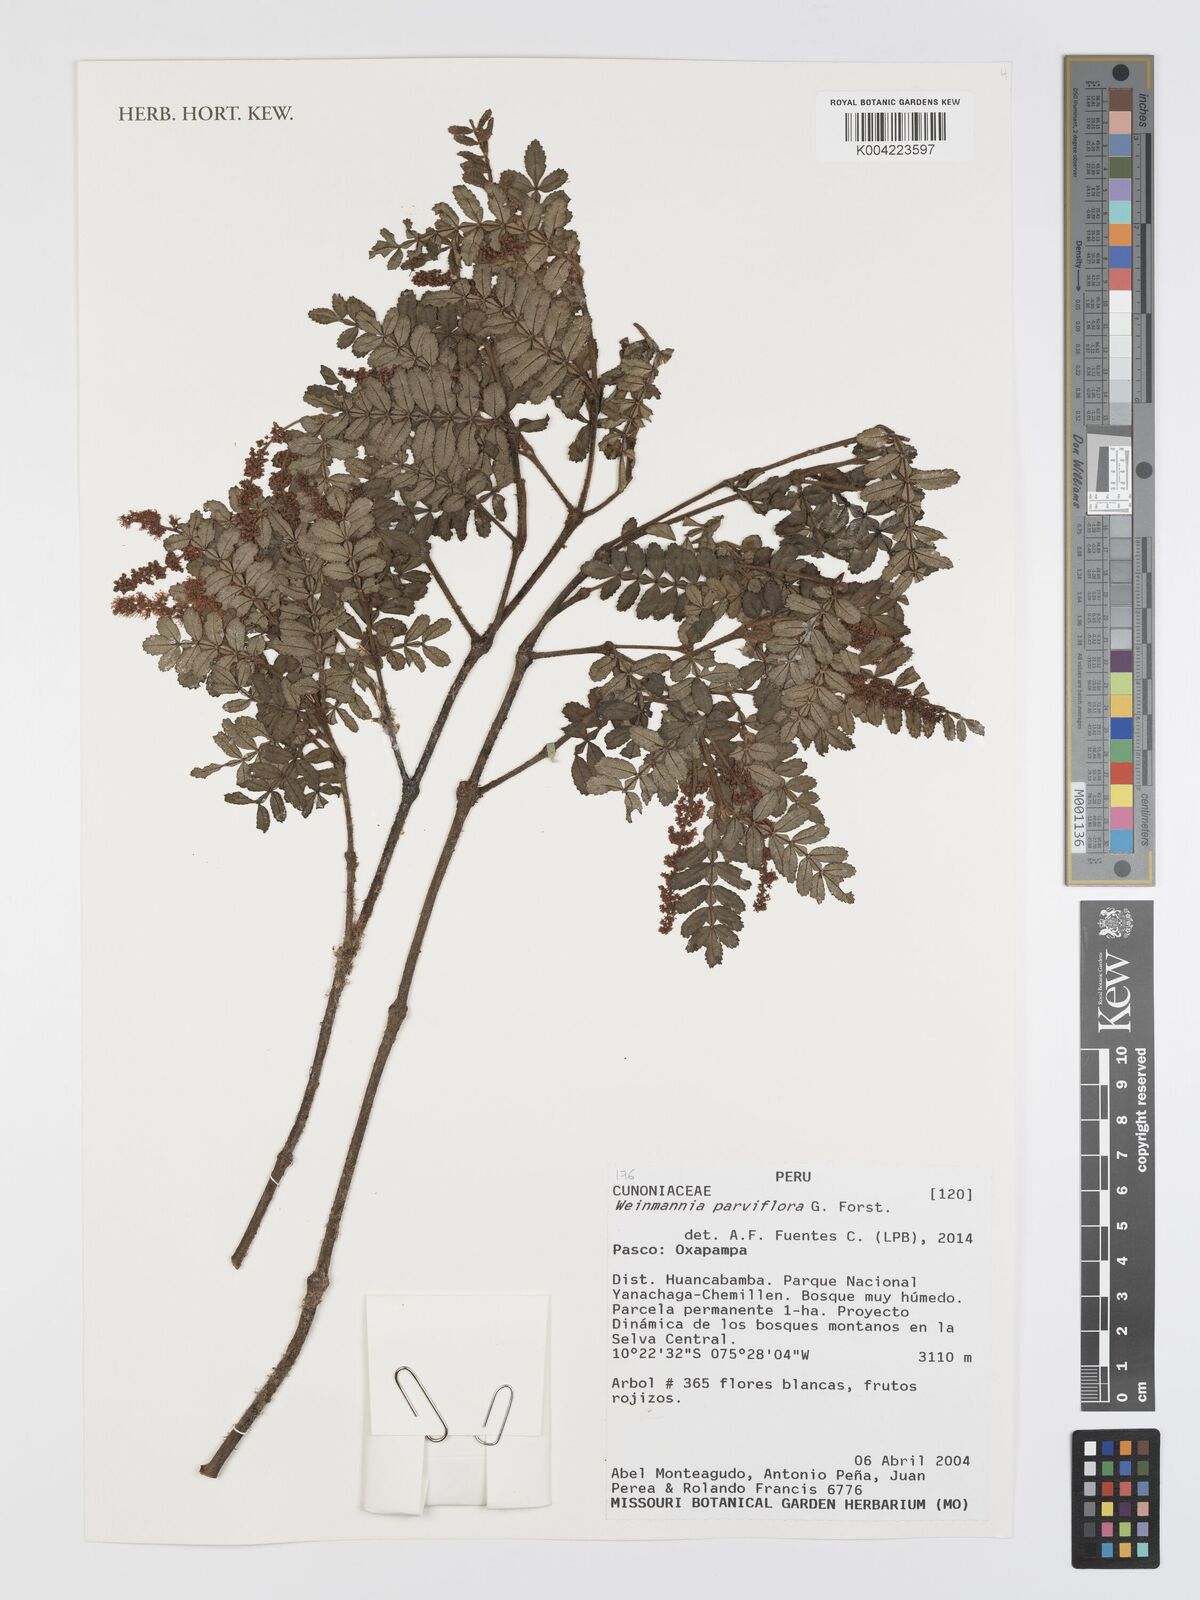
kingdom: Plantae
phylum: Tracheophyta
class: Magnoliopsida
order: Oxalidales
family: Cunoniaceae
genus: Weinmannia
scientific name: Weinmannia
